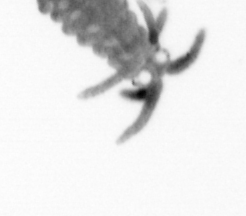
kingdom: Animalia
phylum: Annelida
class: Polychaeta
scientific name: Polychaeta
